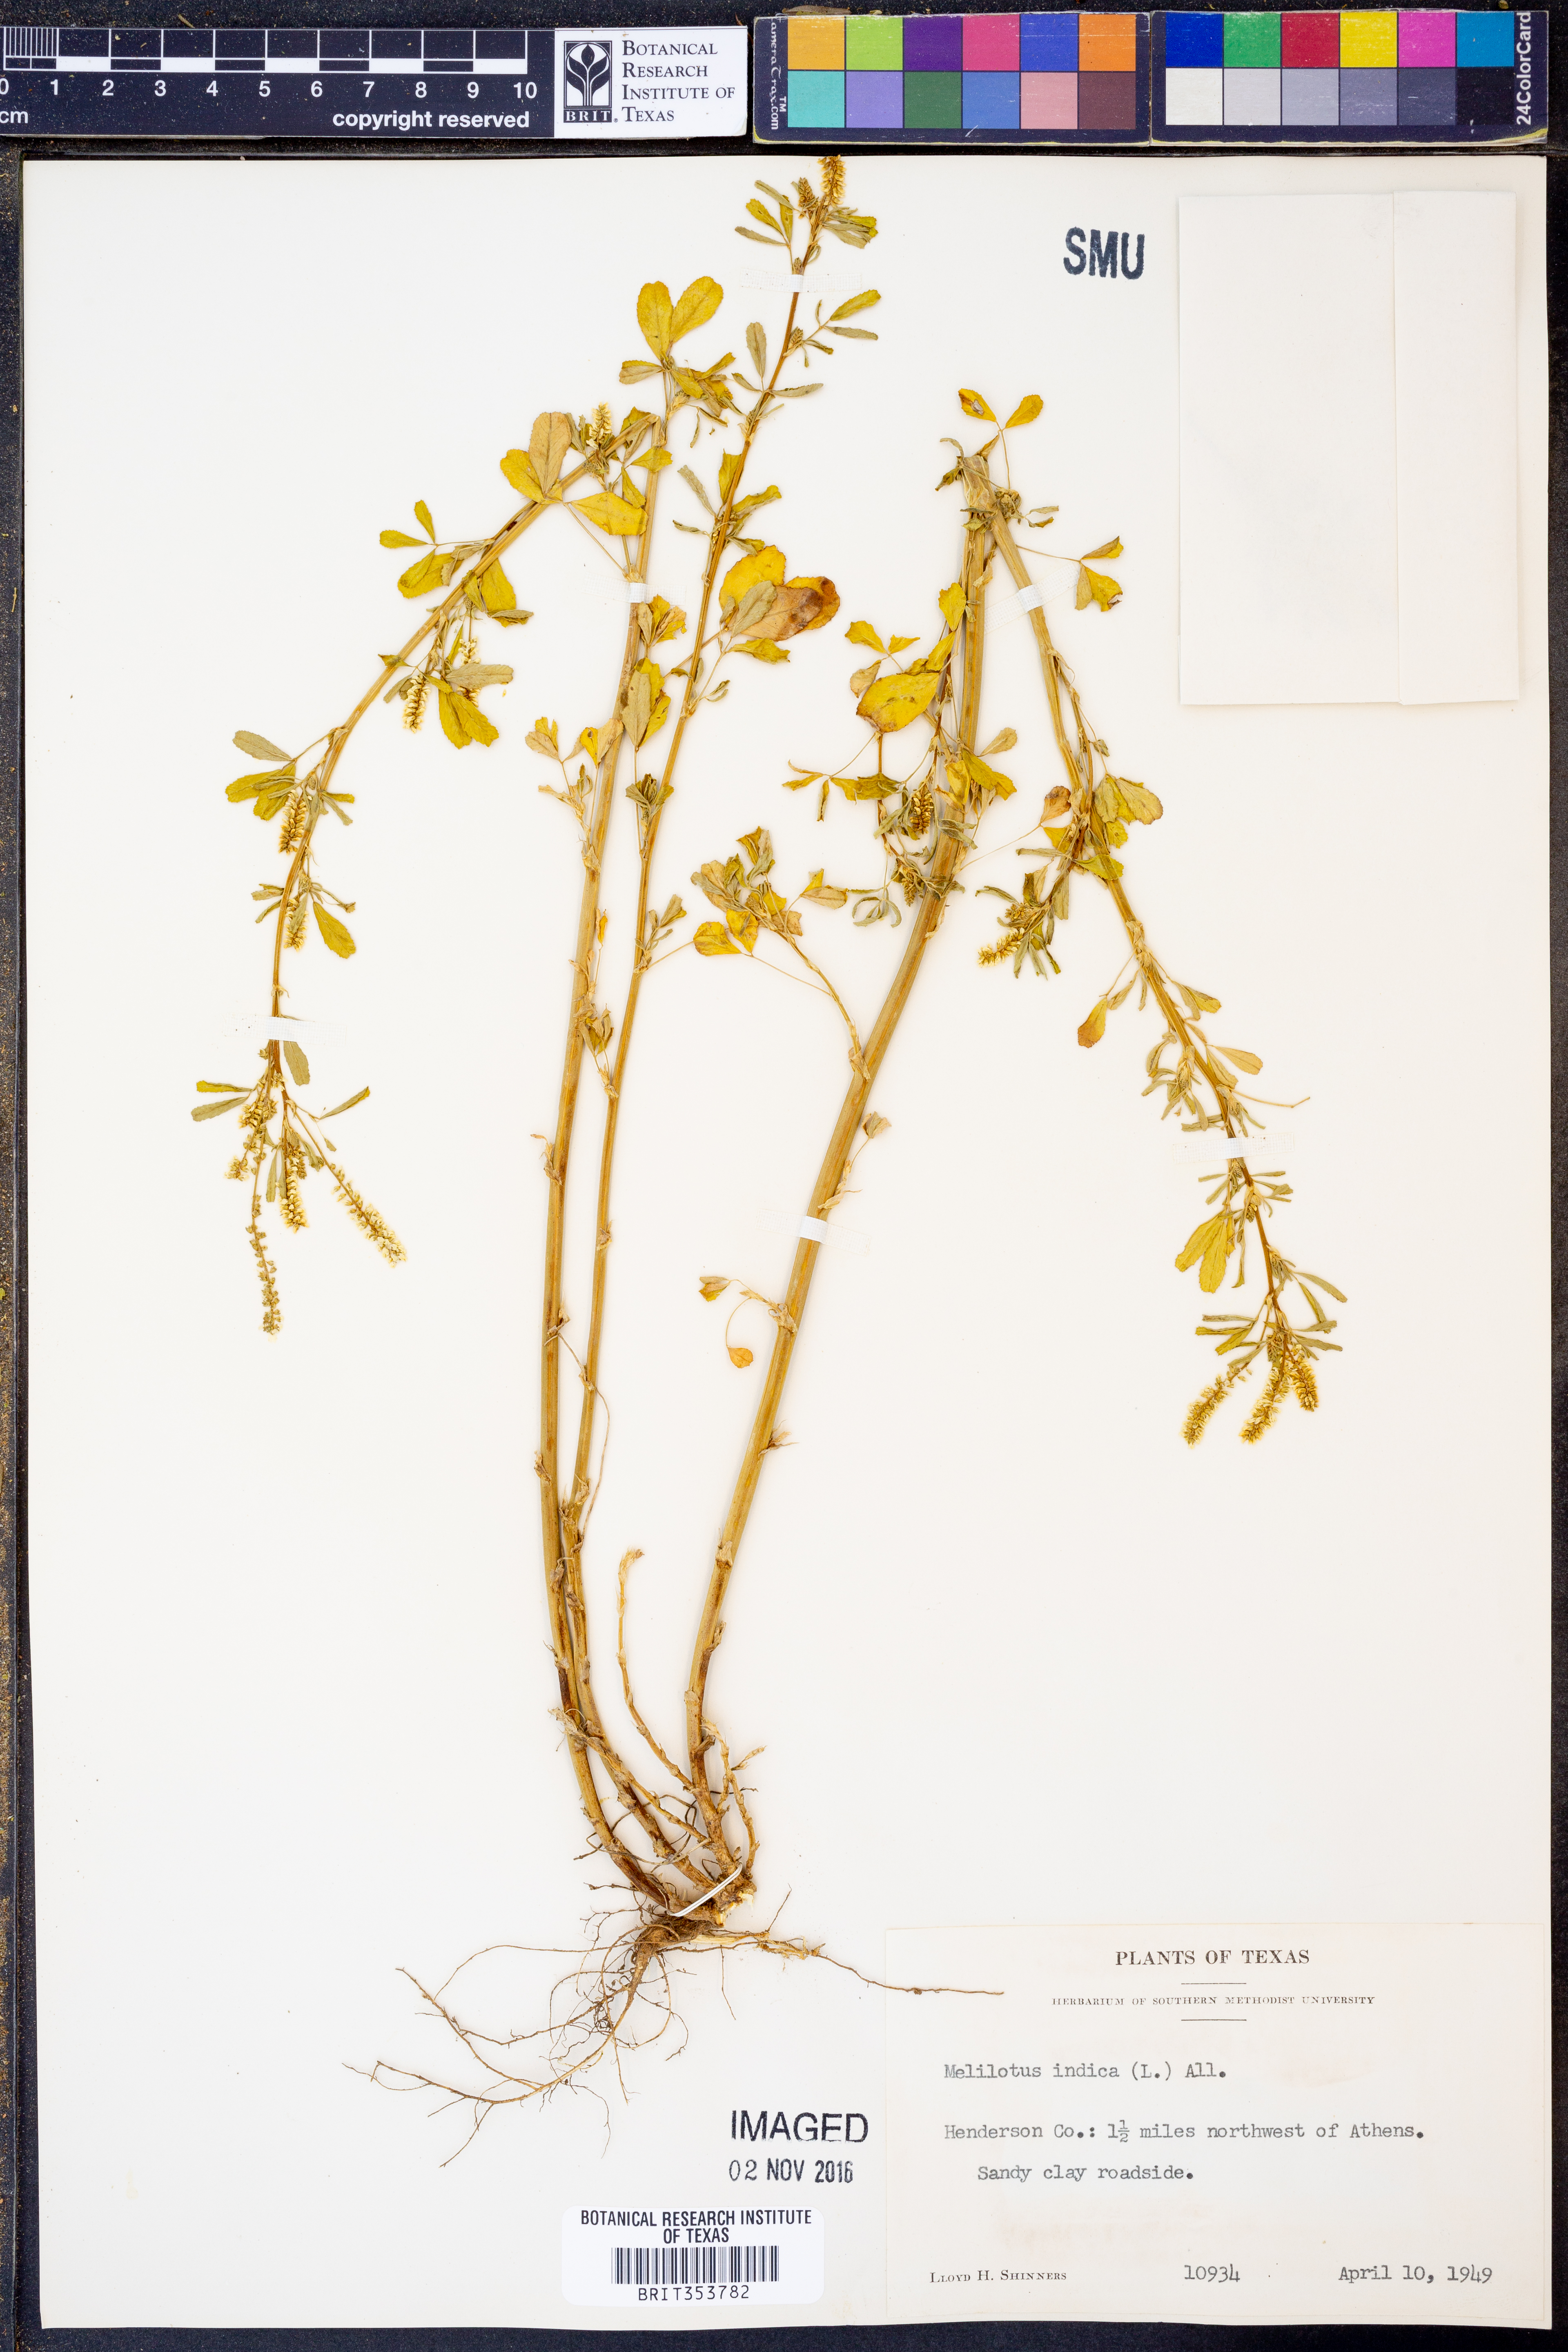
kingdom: Plantae
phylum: Tracheophyta
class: Magnoliopsida
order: Fabales
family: Fabaceae
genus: Melilotus
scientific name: Melilotus indicus
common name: Small melilot
